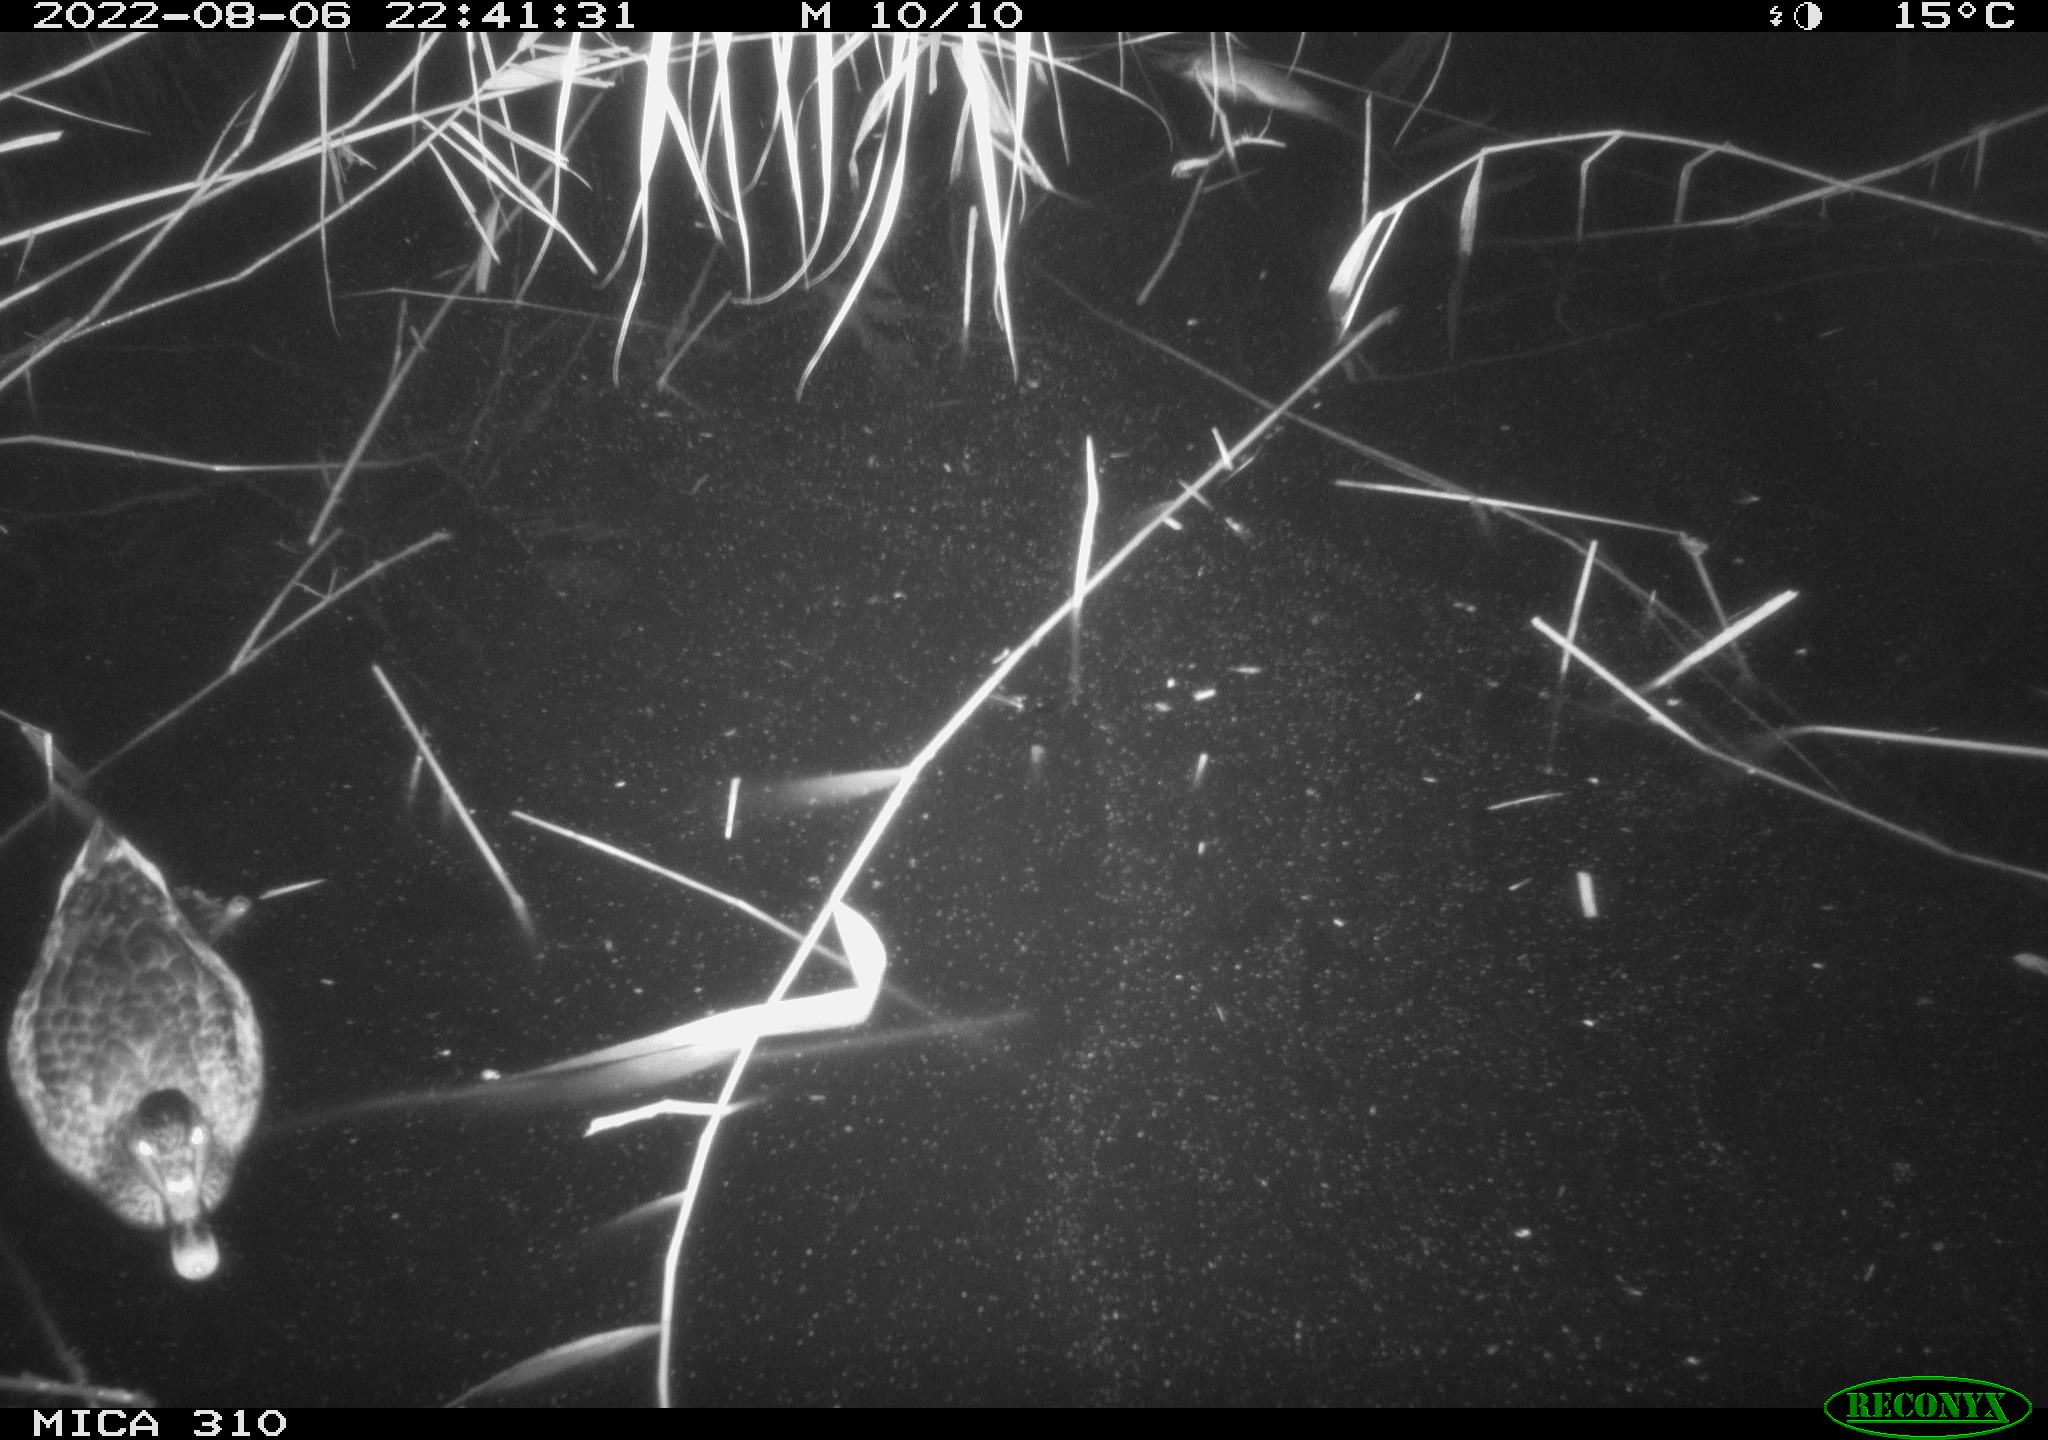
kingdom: Animalia
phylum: Chordata
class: Aves
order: Anseriformes
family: Anatidae
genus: Anas
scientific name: Anas platyrhynchos
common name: Mallard
